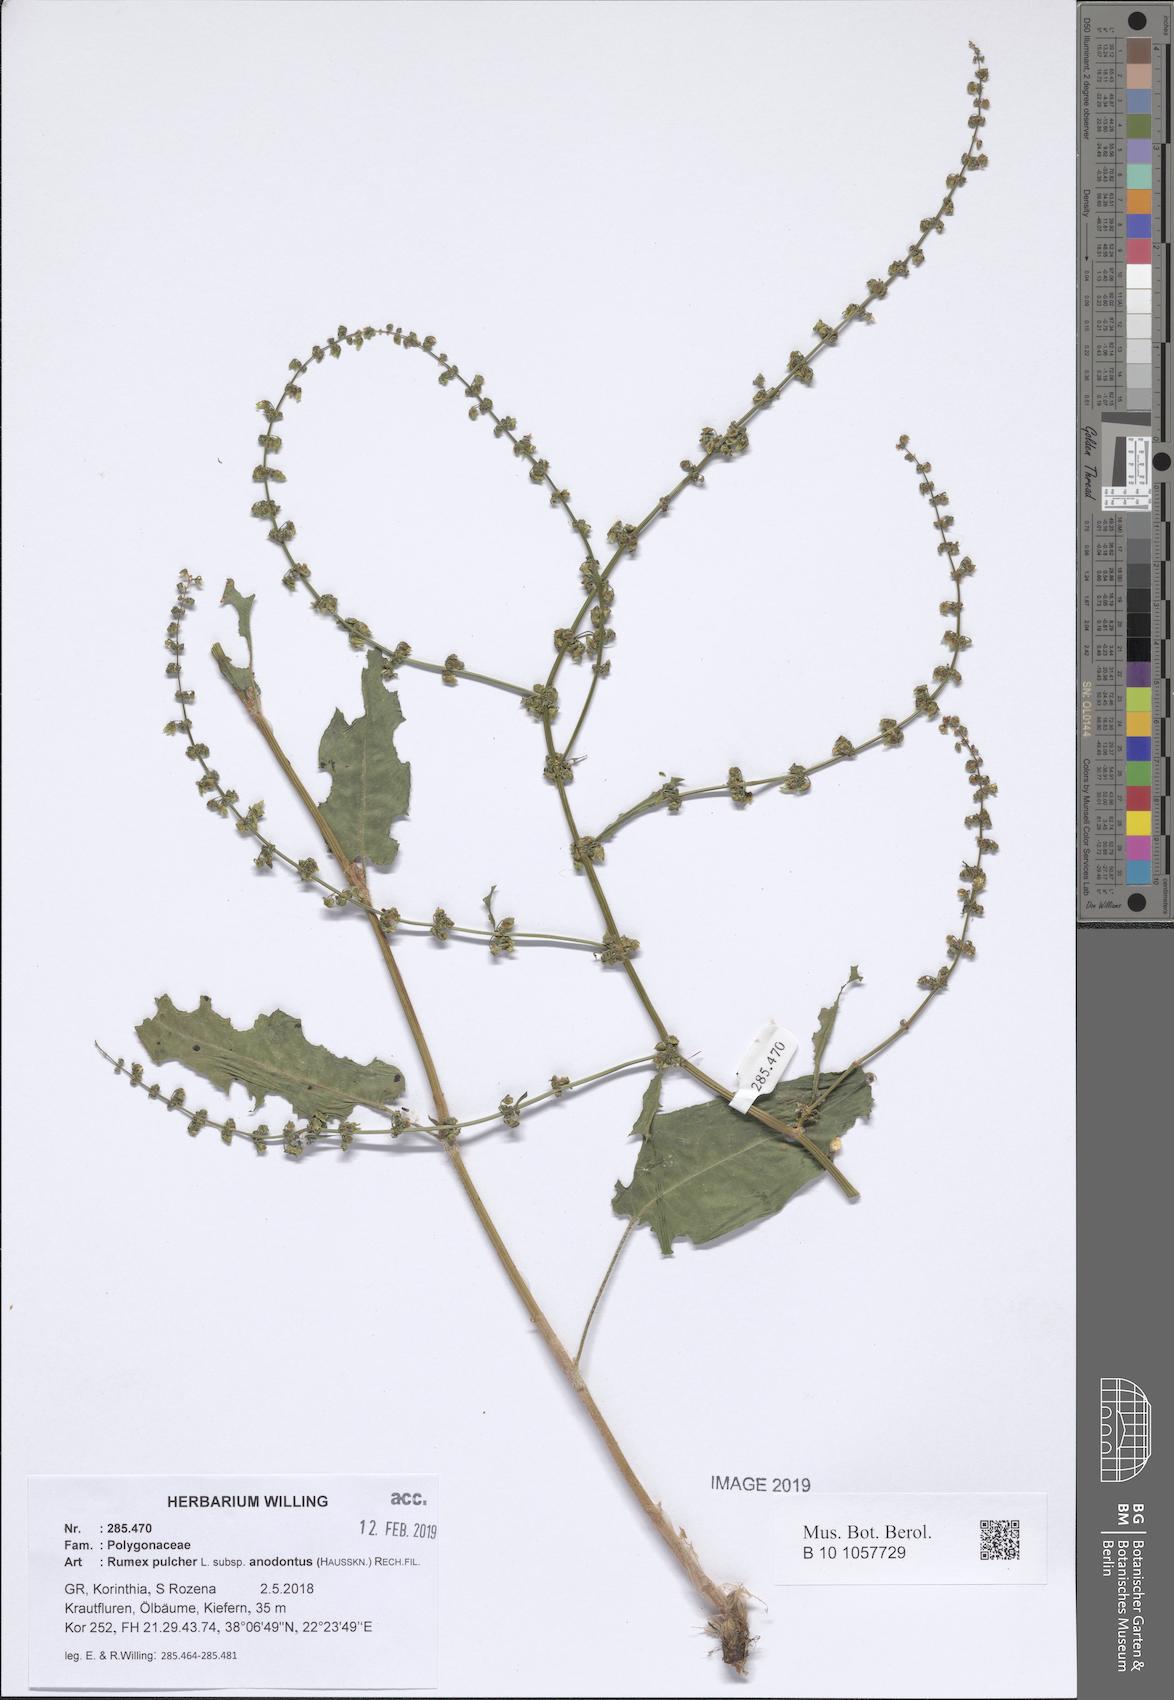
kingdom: Plantae
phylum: Tracheophyta
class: Magnoliopsida
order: Caryophyllales
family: Polygonaceae
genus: Rumex
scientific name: Rumex pulcher
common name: Fiddle dock
